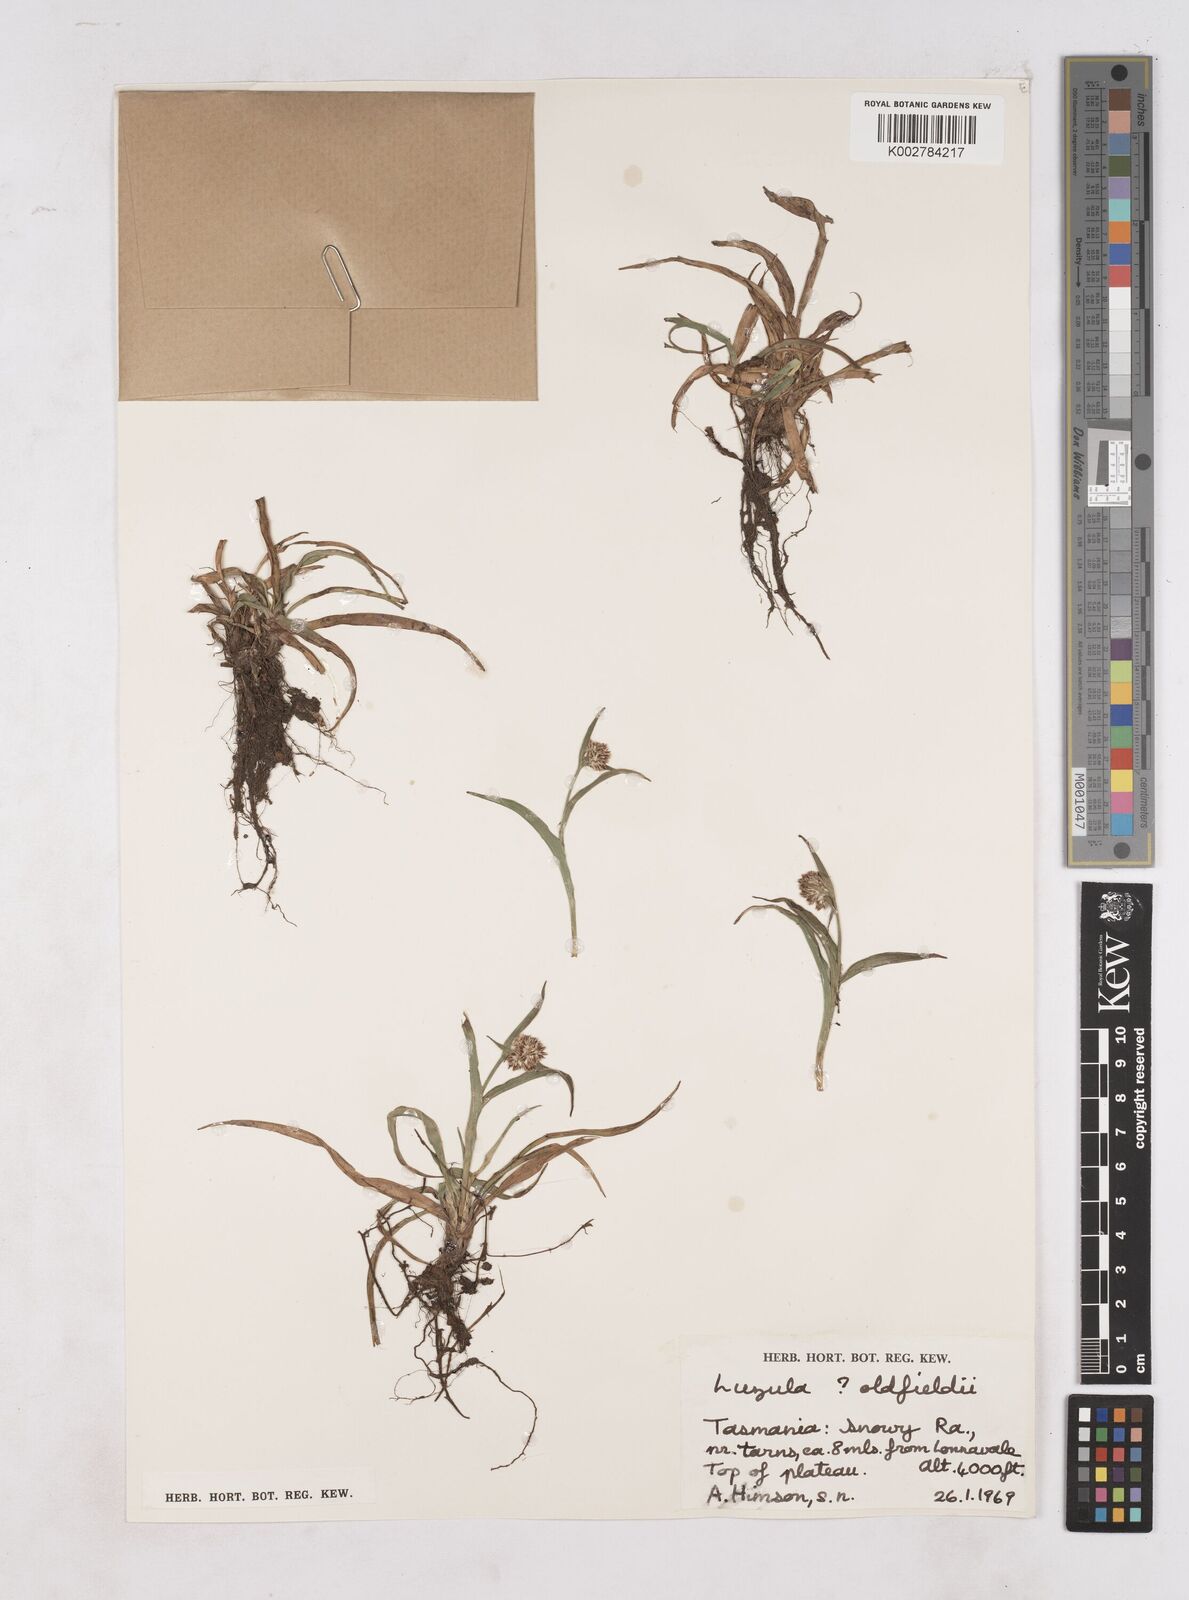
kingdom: Plantae
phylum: Tracheophyta
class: Liliopsida
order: Poales
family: Juncaceae
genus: Luzula
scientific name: Luzula australasica
